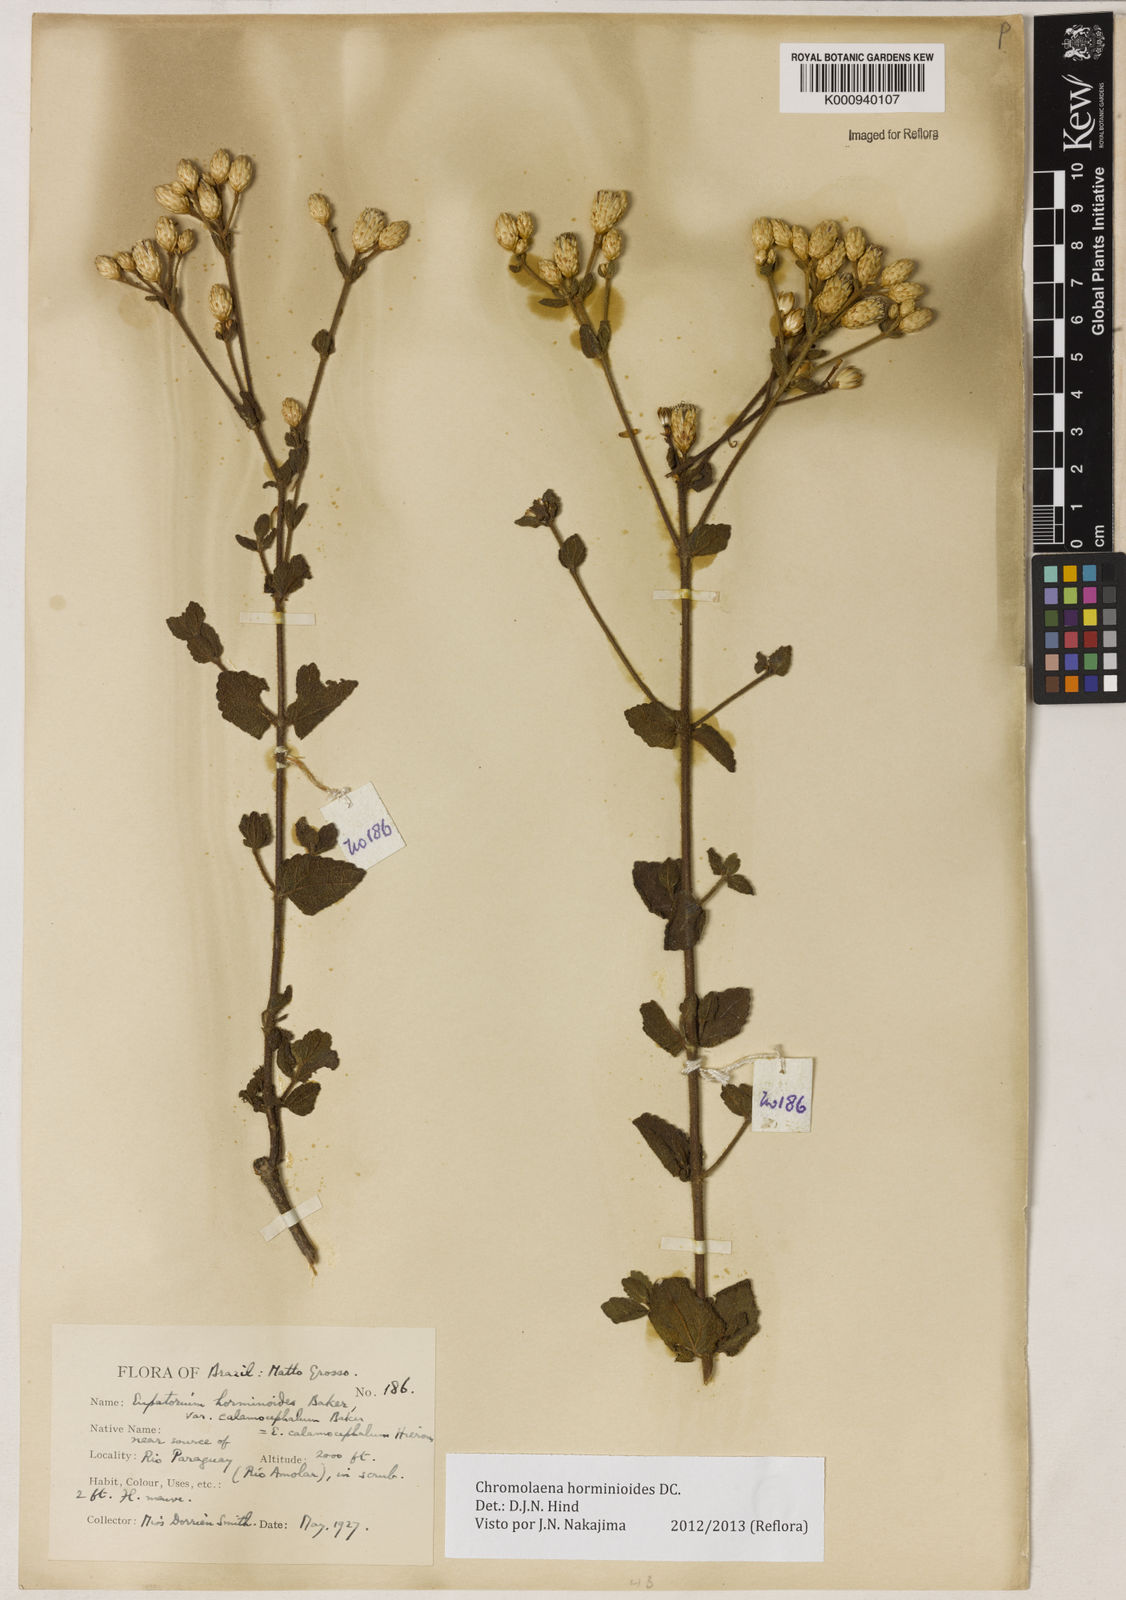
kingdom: Plantae
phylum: Tracheophyta
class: Magnoliopsida
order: Asterales
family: Asteraceae
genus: Chromolaena
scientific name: Chromolaena horminoides
